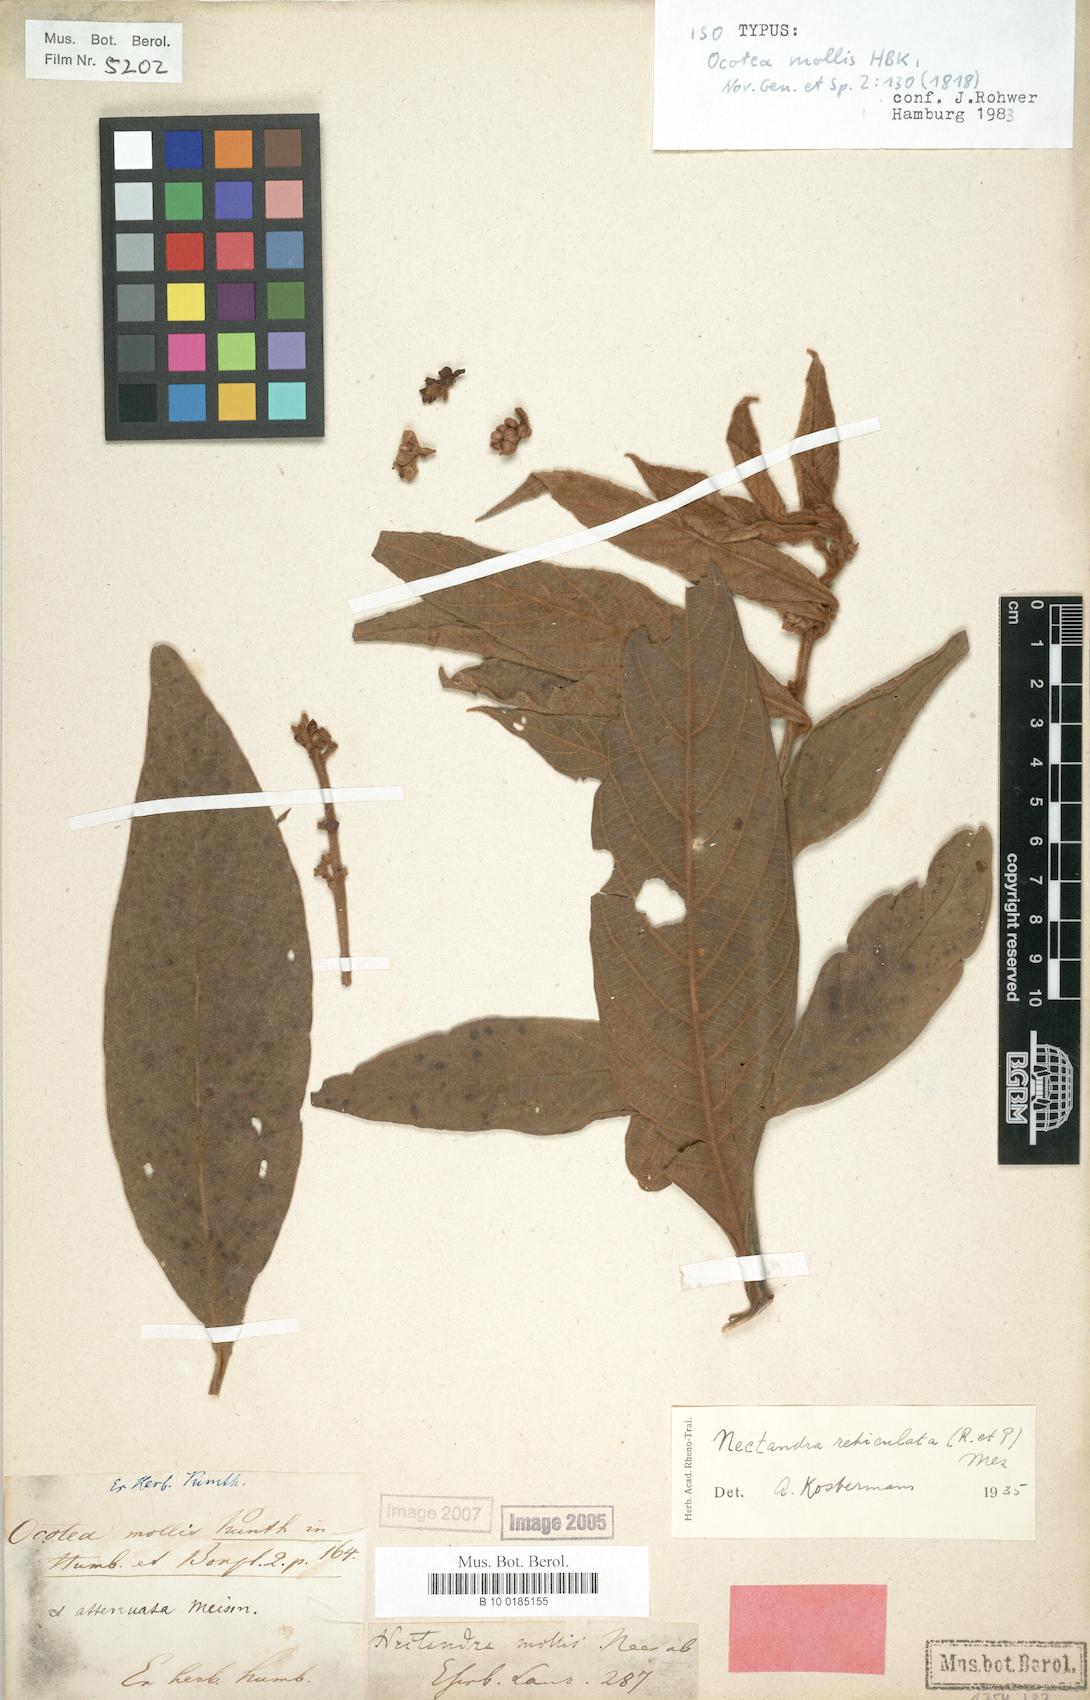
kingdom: Plantae
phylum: Tracheophyta
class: Magnoliopsida
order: Laurales
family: Lauraceae
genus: Nectandra
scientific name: Nectandra villosa
